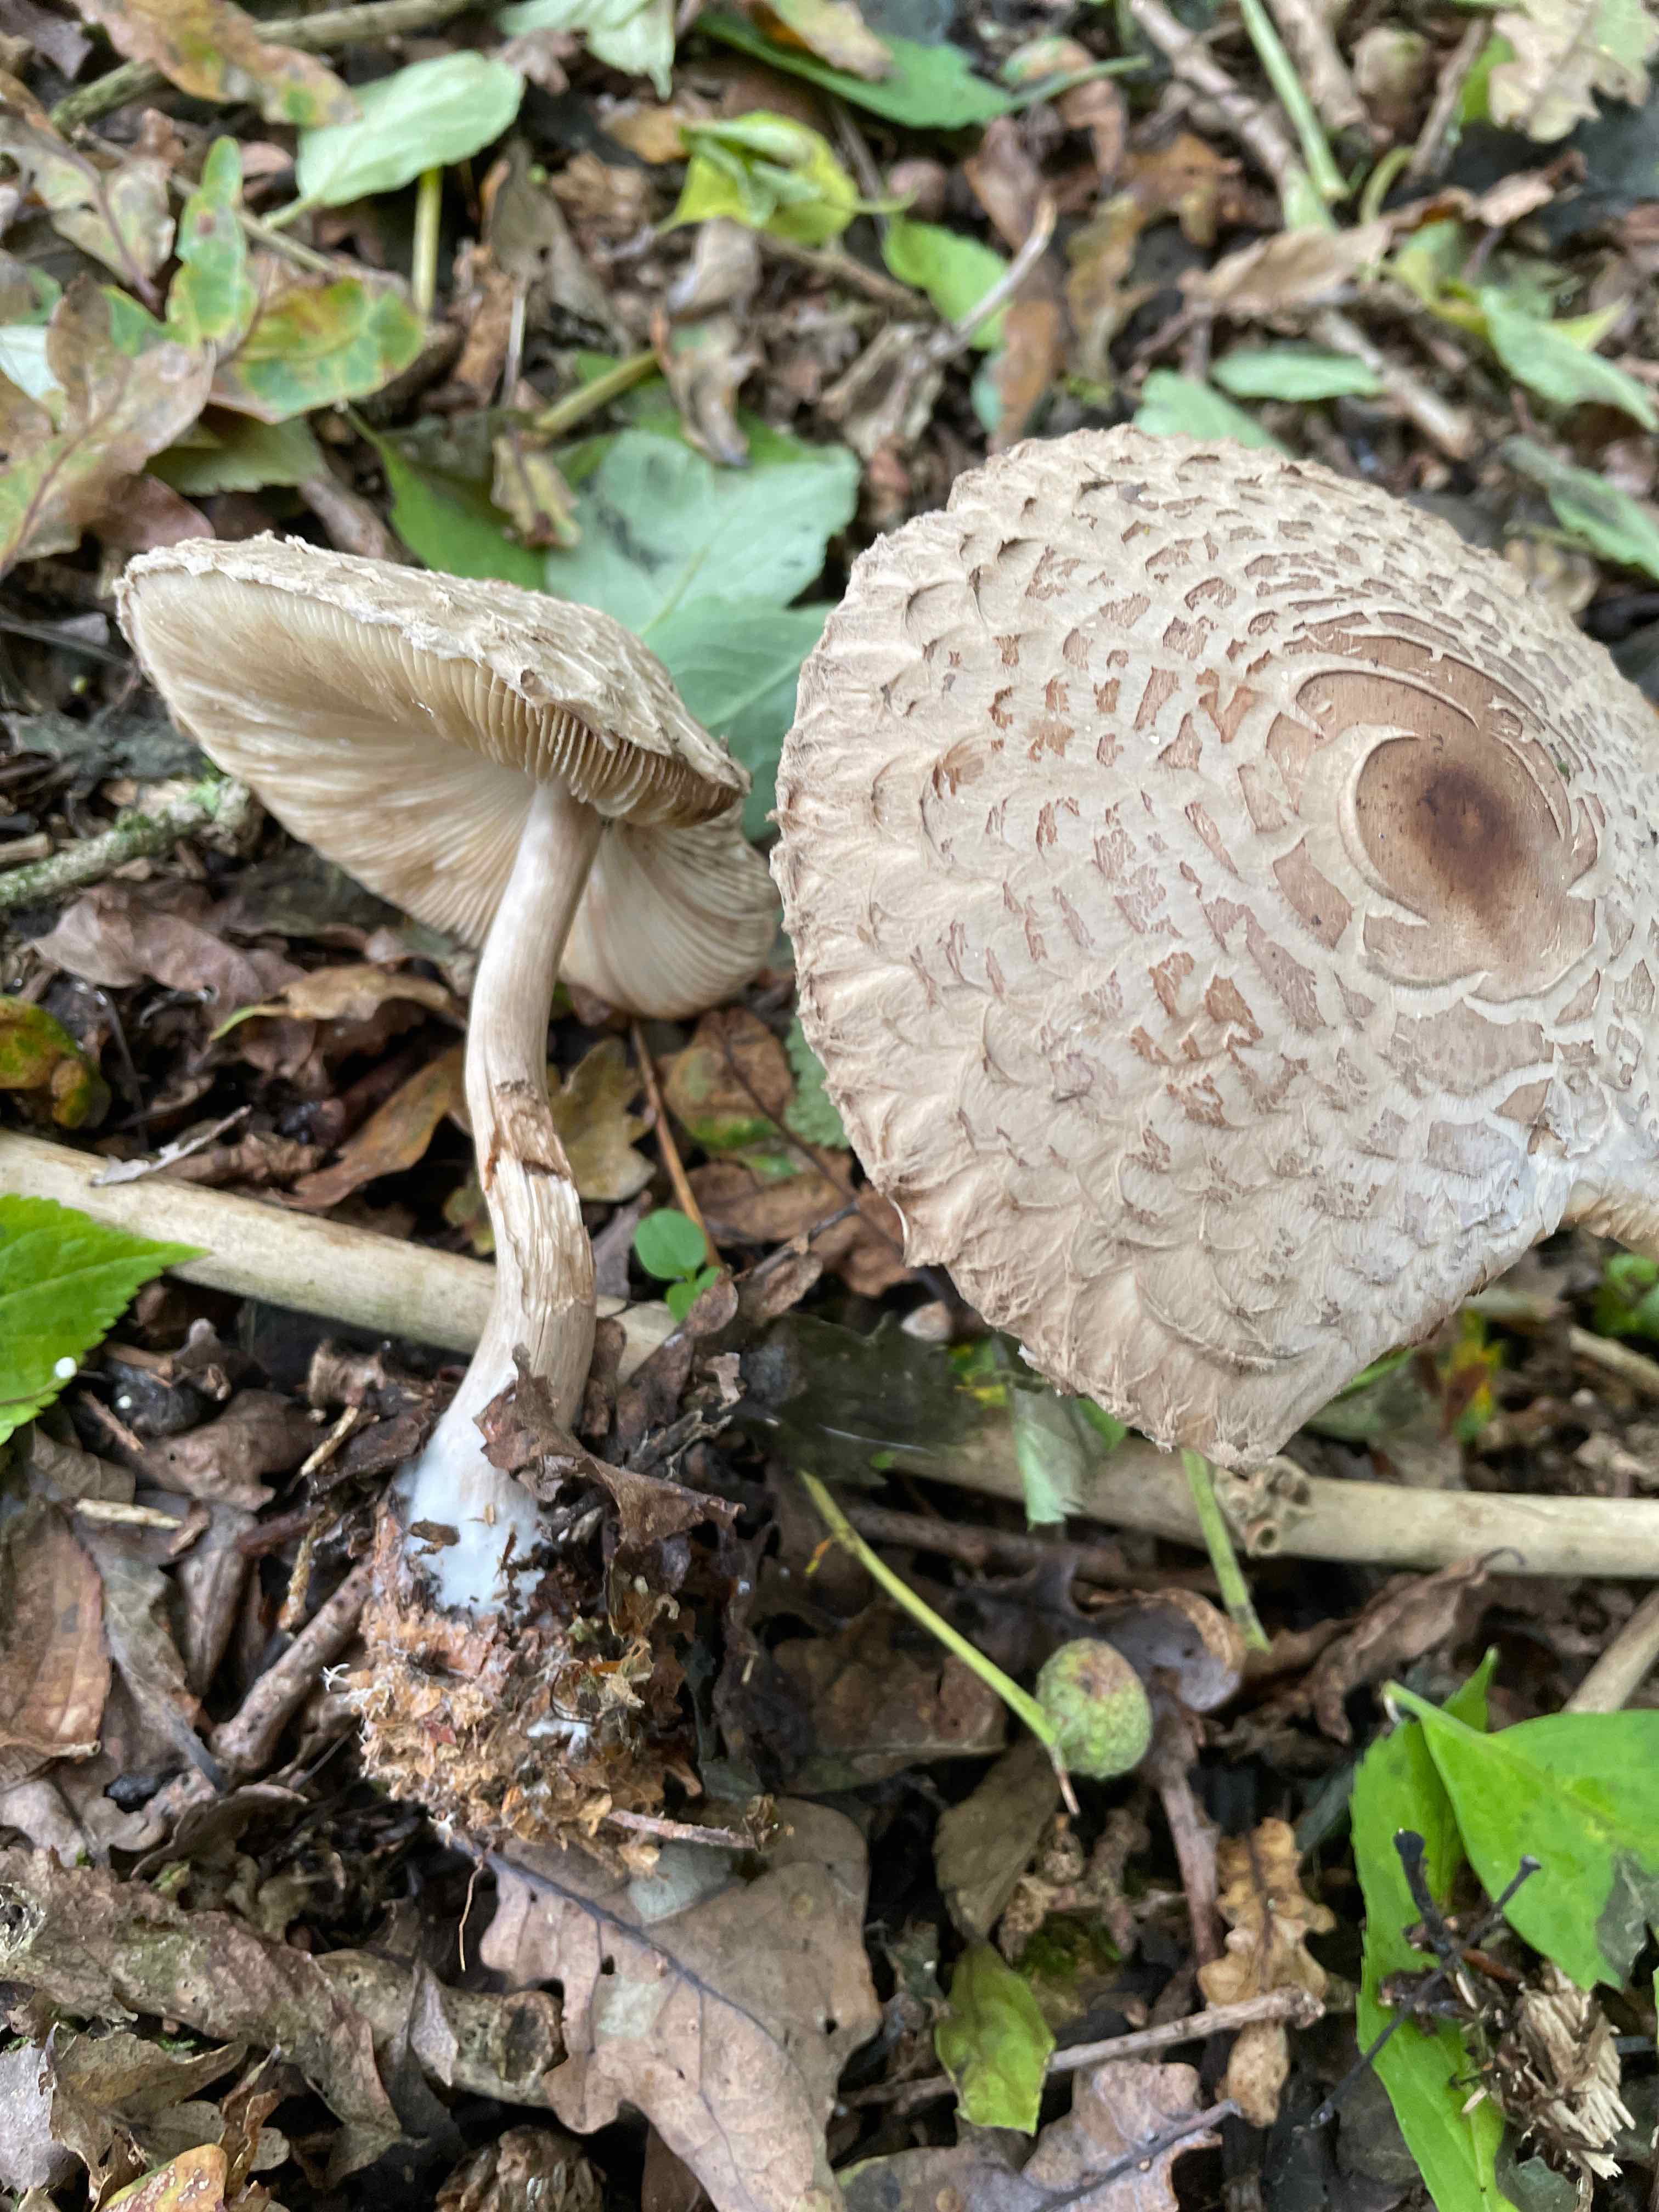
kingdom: Fungi
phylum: Basidiomycota
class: Agaricomycetes
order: Agaricales
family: Agaricaceae
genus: Chlorophyllum
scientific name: Chlorophyllum olivieri
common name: almindelig rabarberhat
